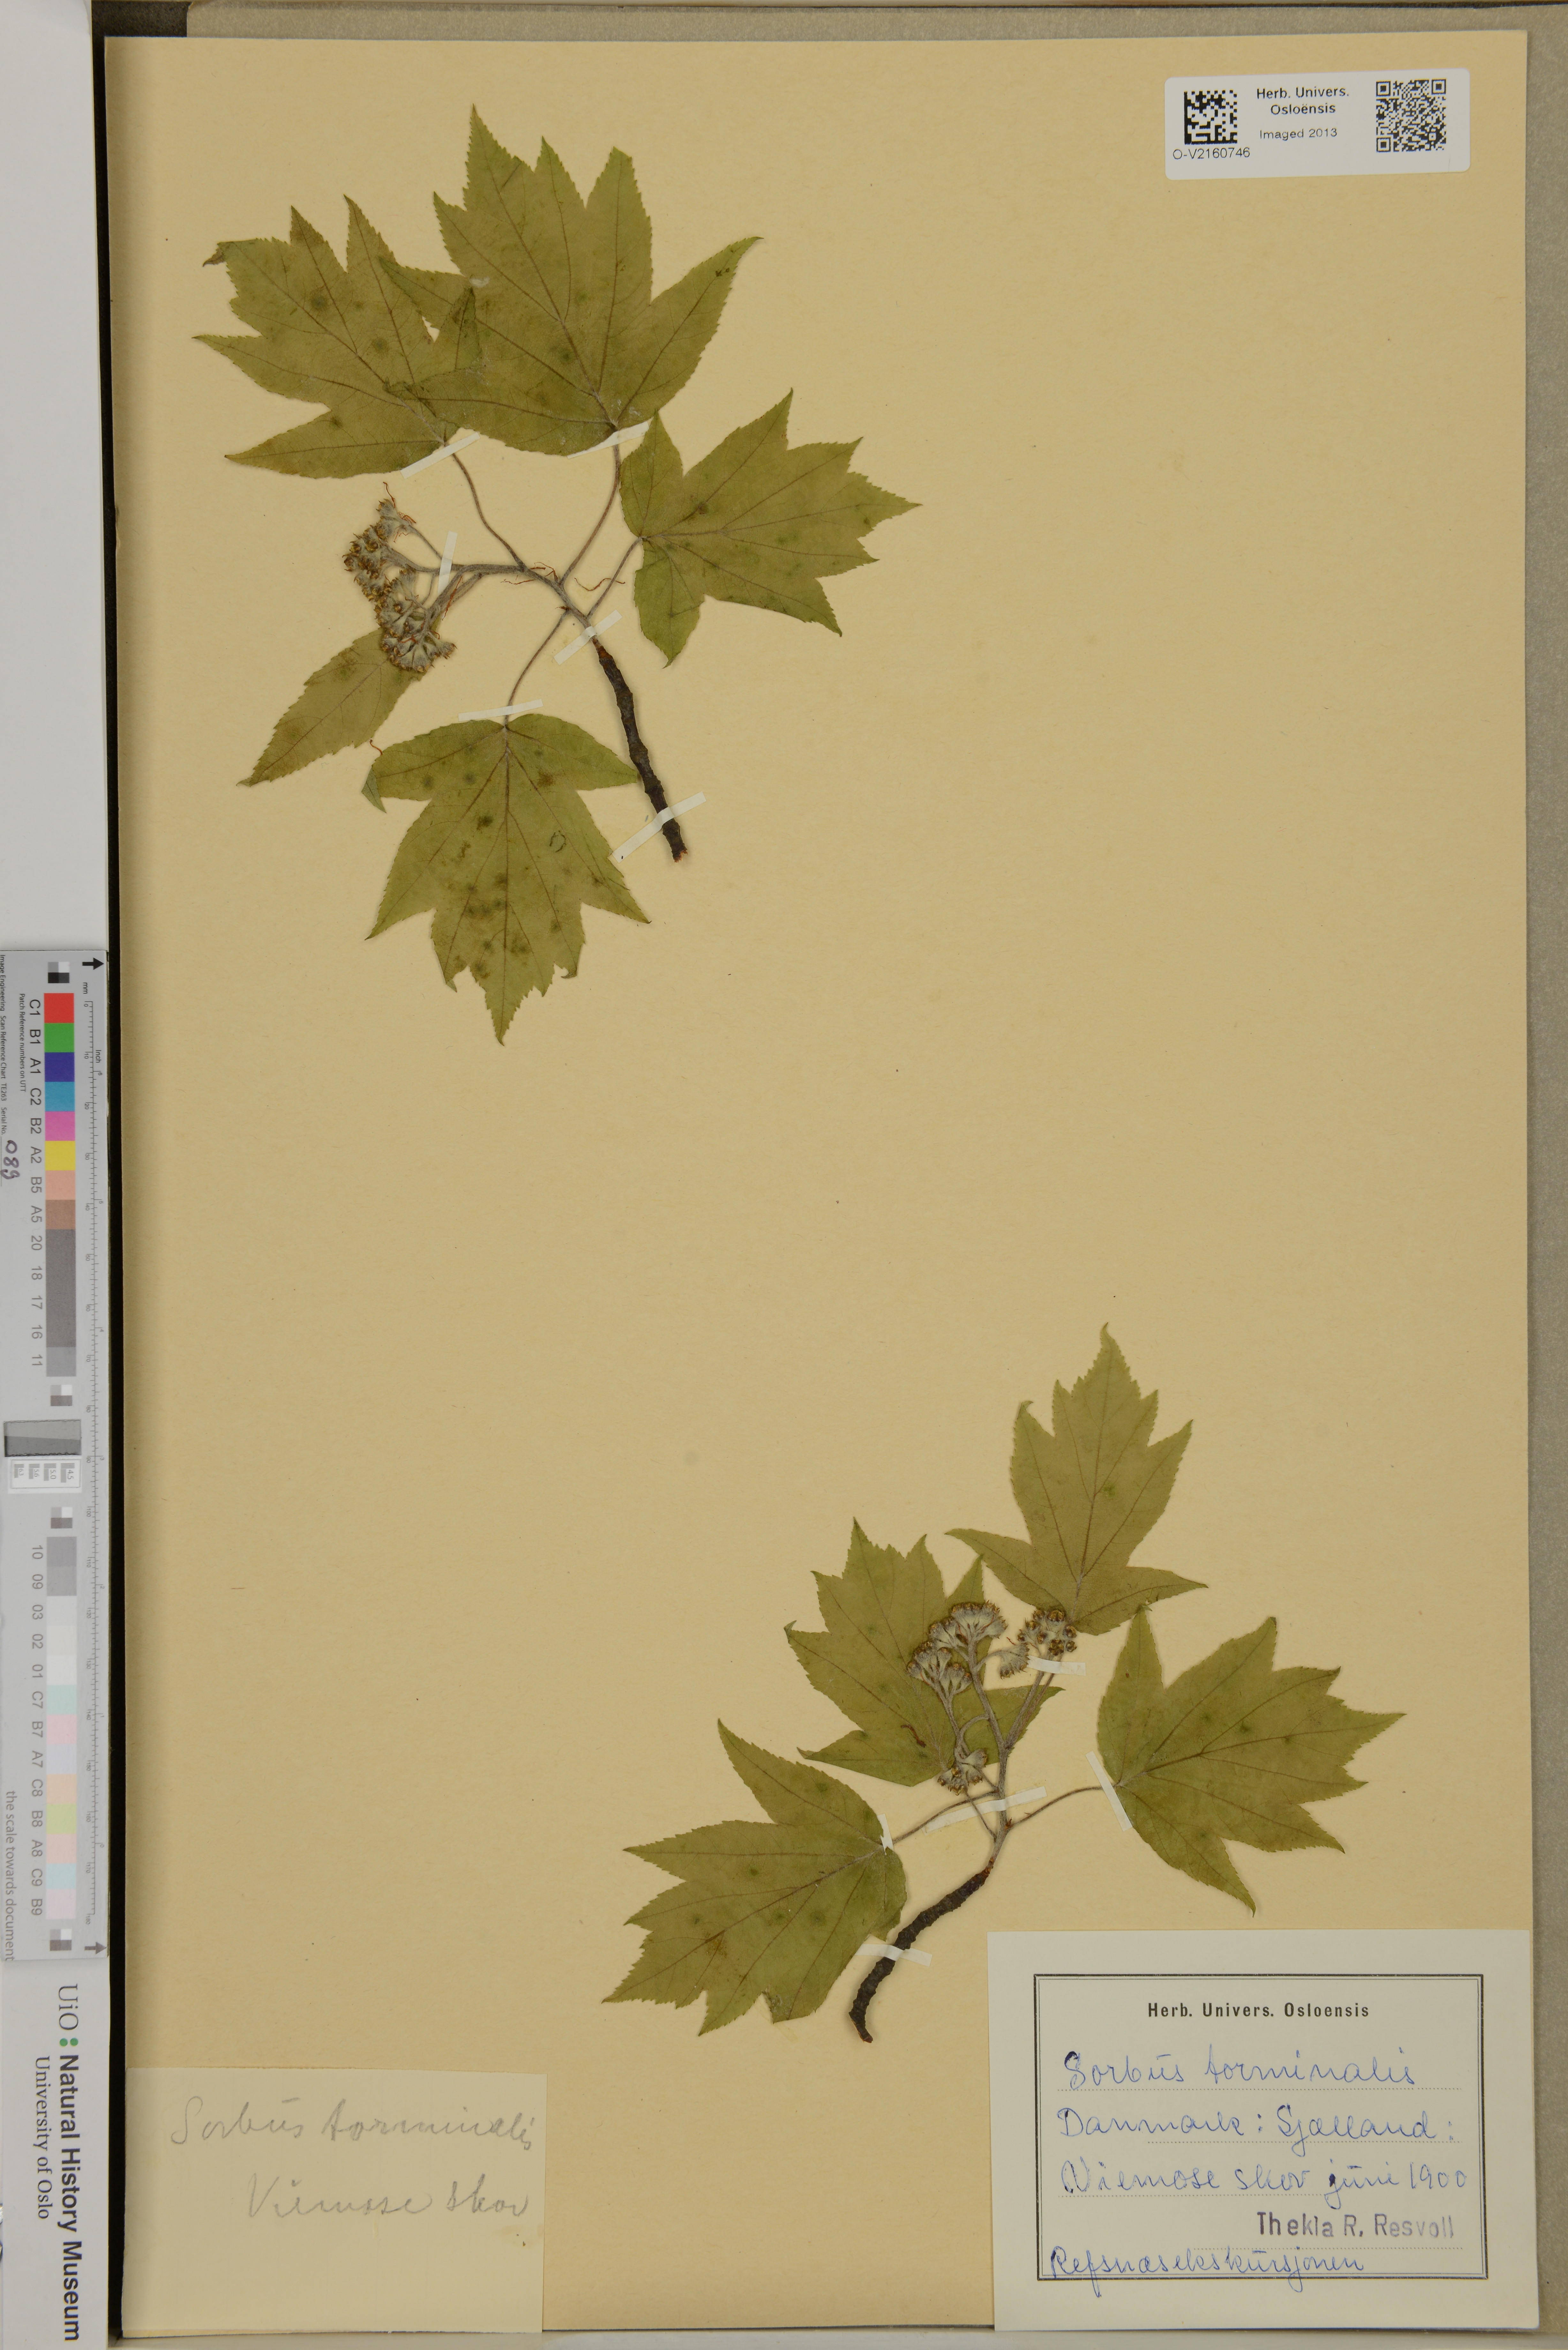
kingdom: Plantae
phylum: Tracheophyta
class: Magnoliopsida
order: Rosales
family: Rosaceae
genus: Torminalis
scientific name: Torminalis glaberrima
